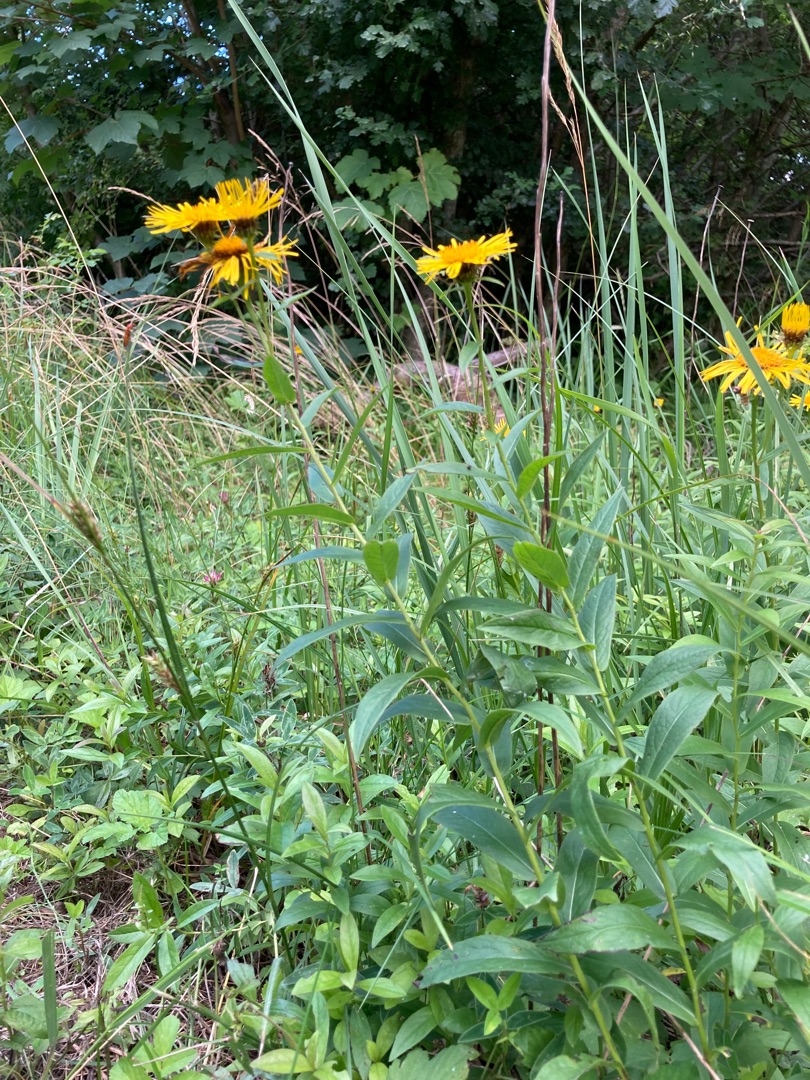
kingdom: Plantae
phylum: Tracheophyta
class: Magnoliopsida
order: Asterales
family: Asteraceae
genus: Pentanema
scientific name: Pentanema salicinum
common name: Pile-alant
